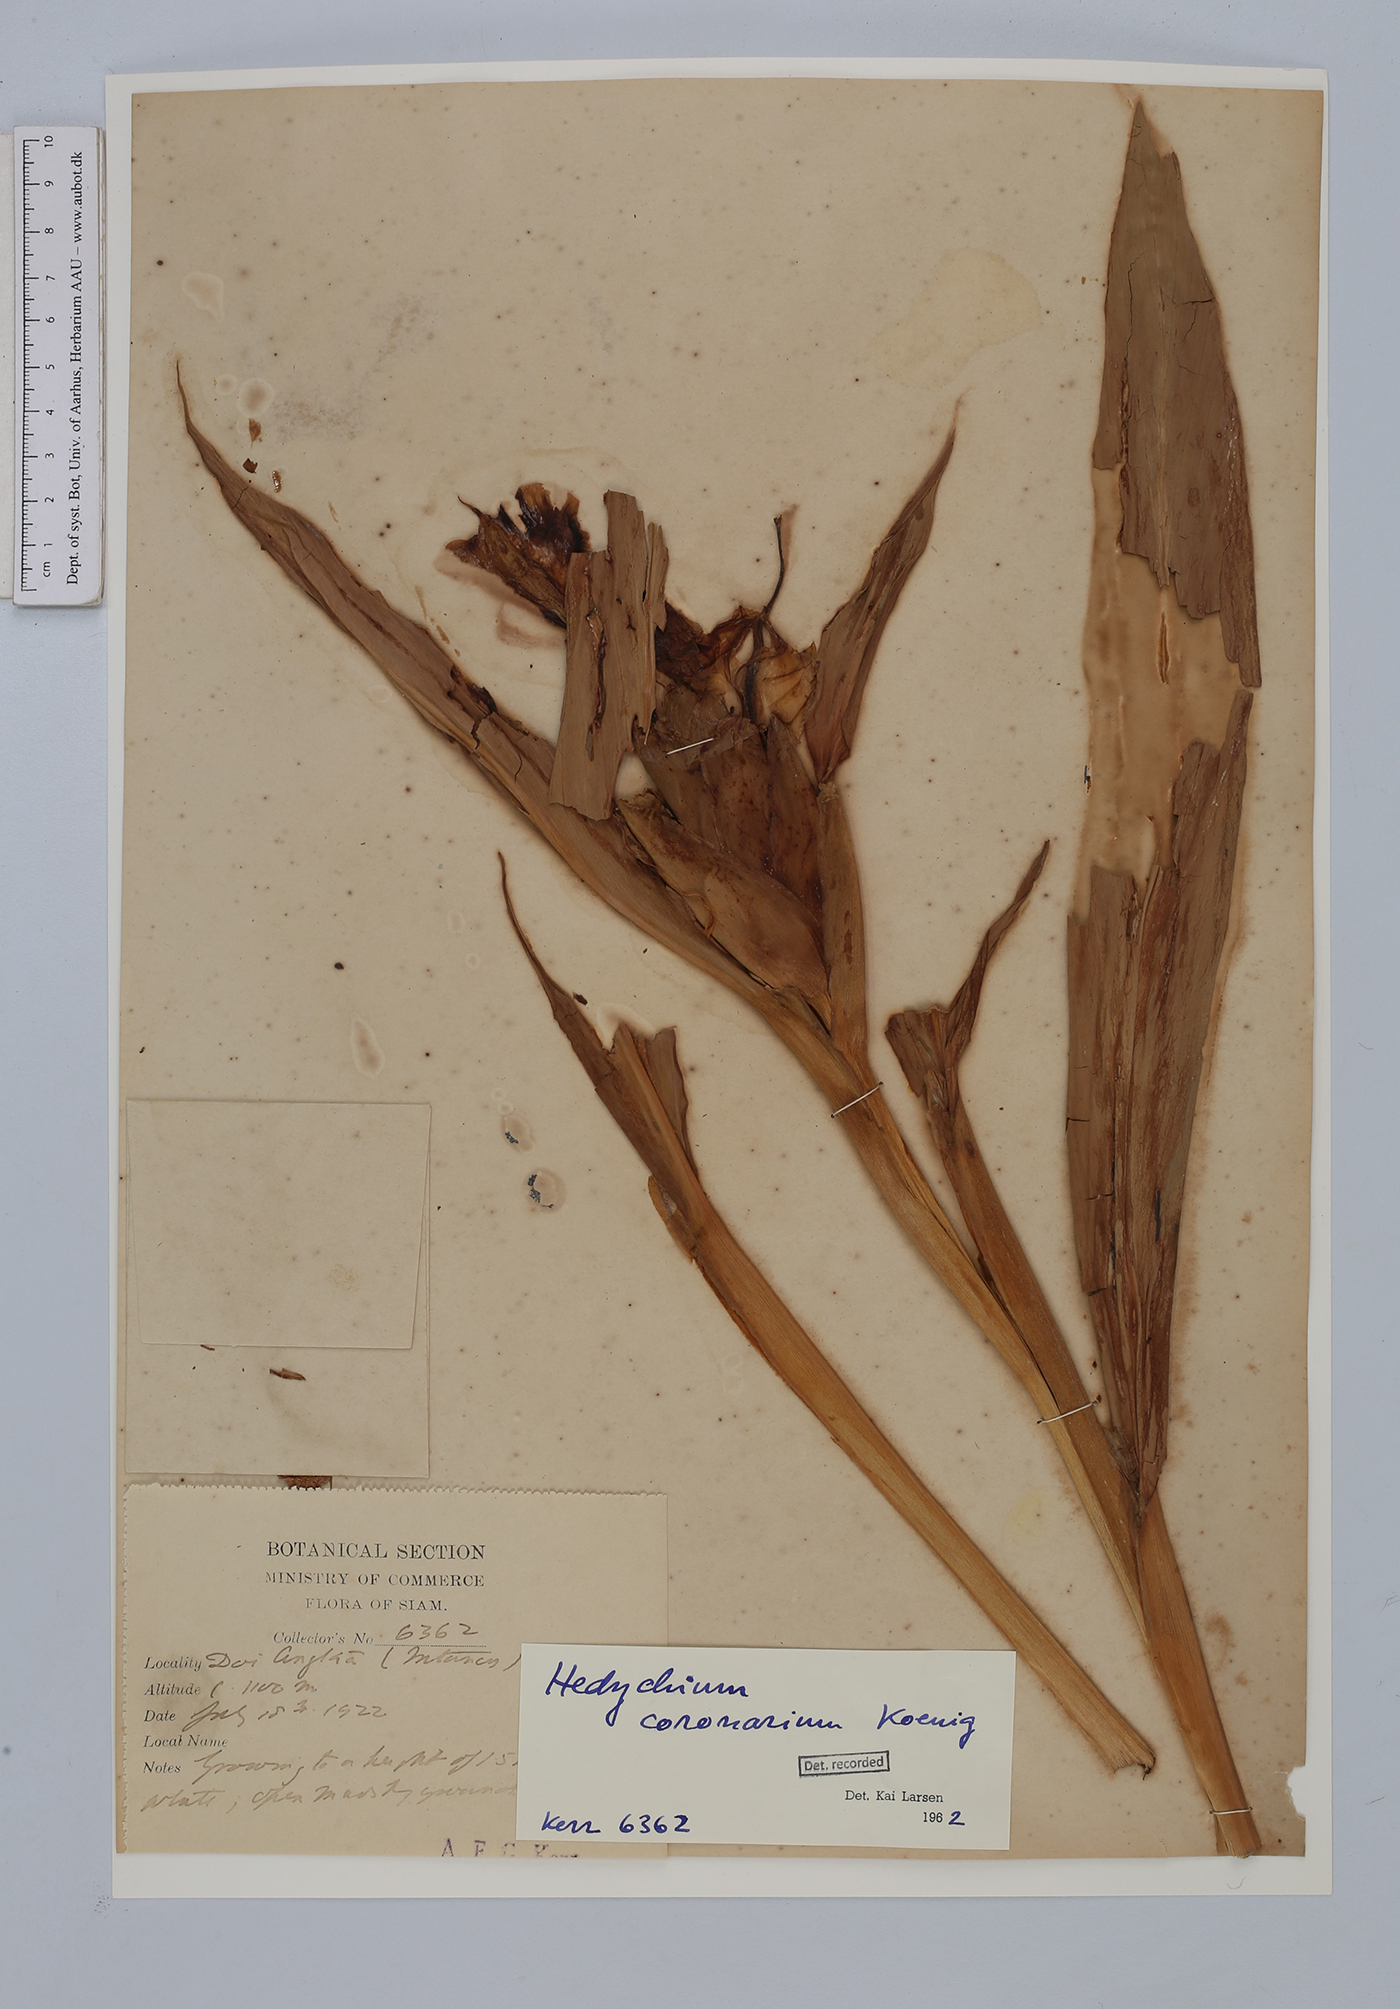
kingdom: Plantae
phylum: Tracheophyta
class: Liliopsida
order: Zingiberales
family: Zingiberaceae
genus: Hedychium
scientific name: Hedychium coronarium
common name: White garland-lily
